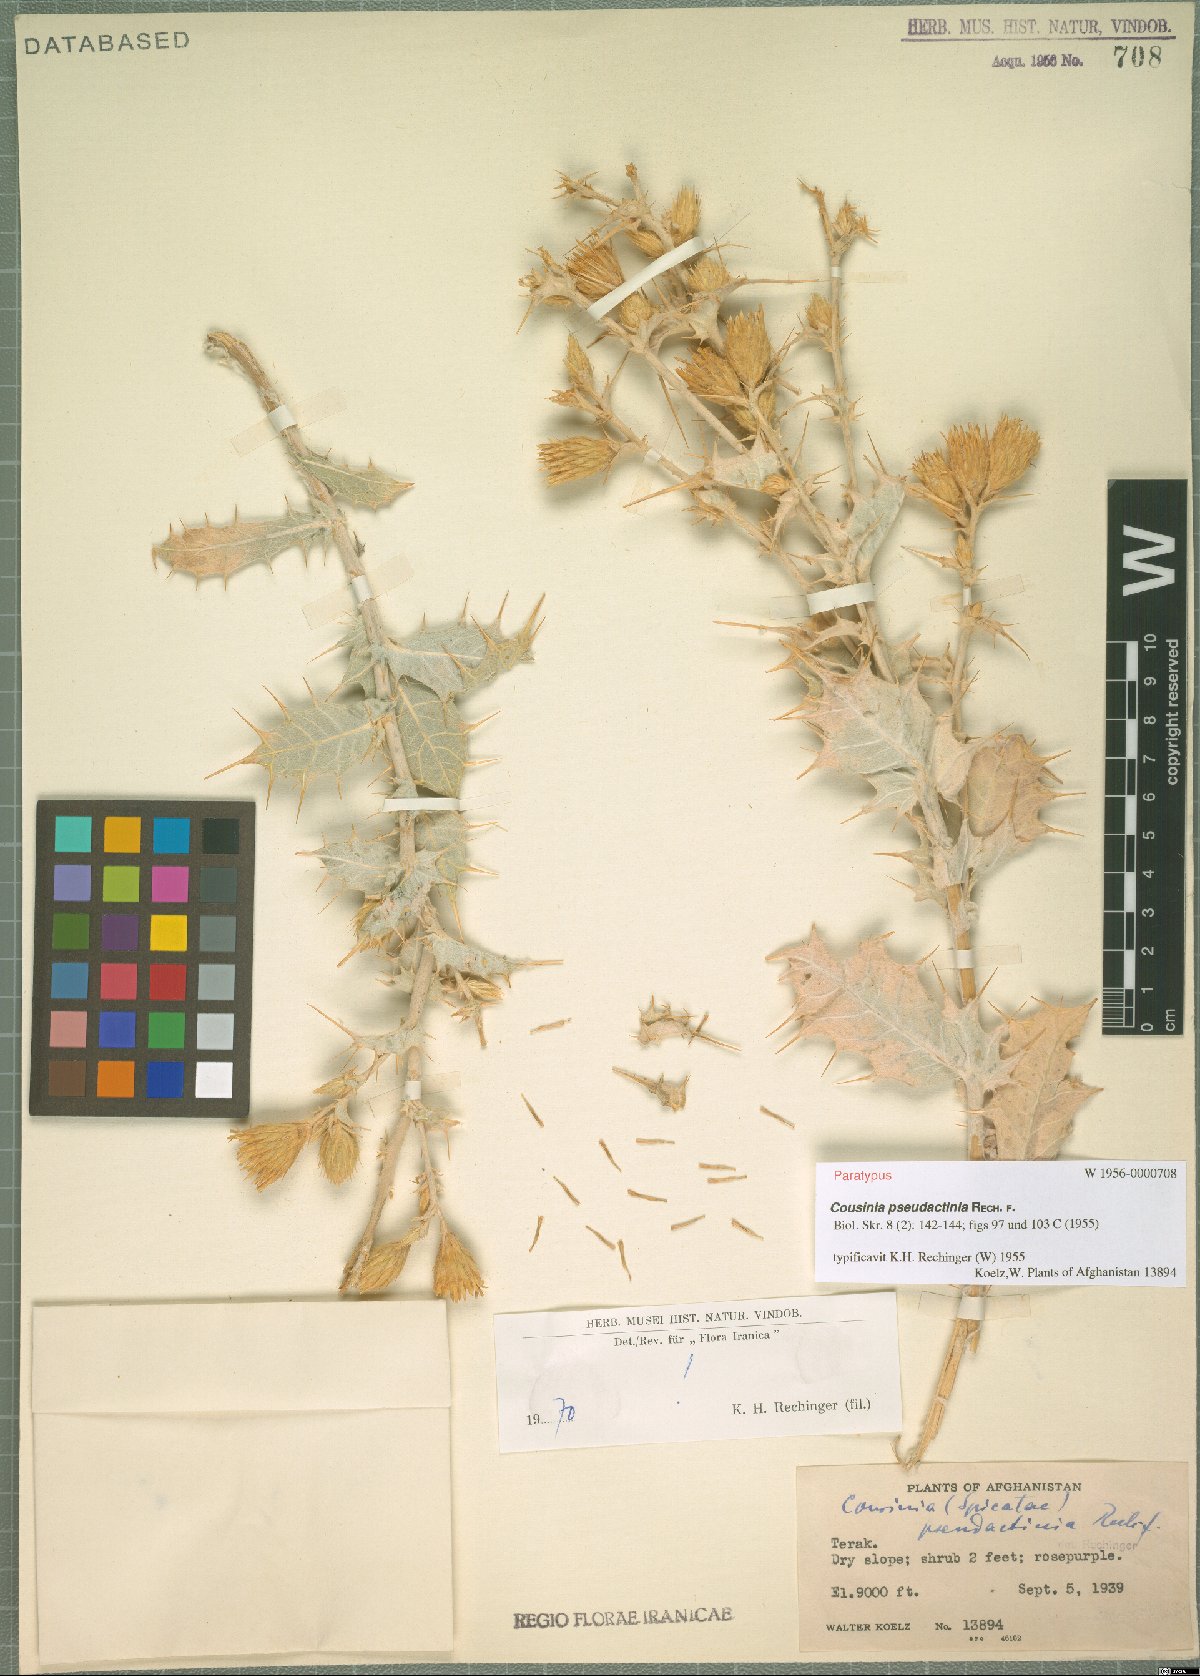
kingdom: Plantae
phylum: Tracheophyta
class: Magnoliopsida
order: Asterales
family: Asteraceae
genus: Cousinia
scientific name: Cousinia pseudactinia
